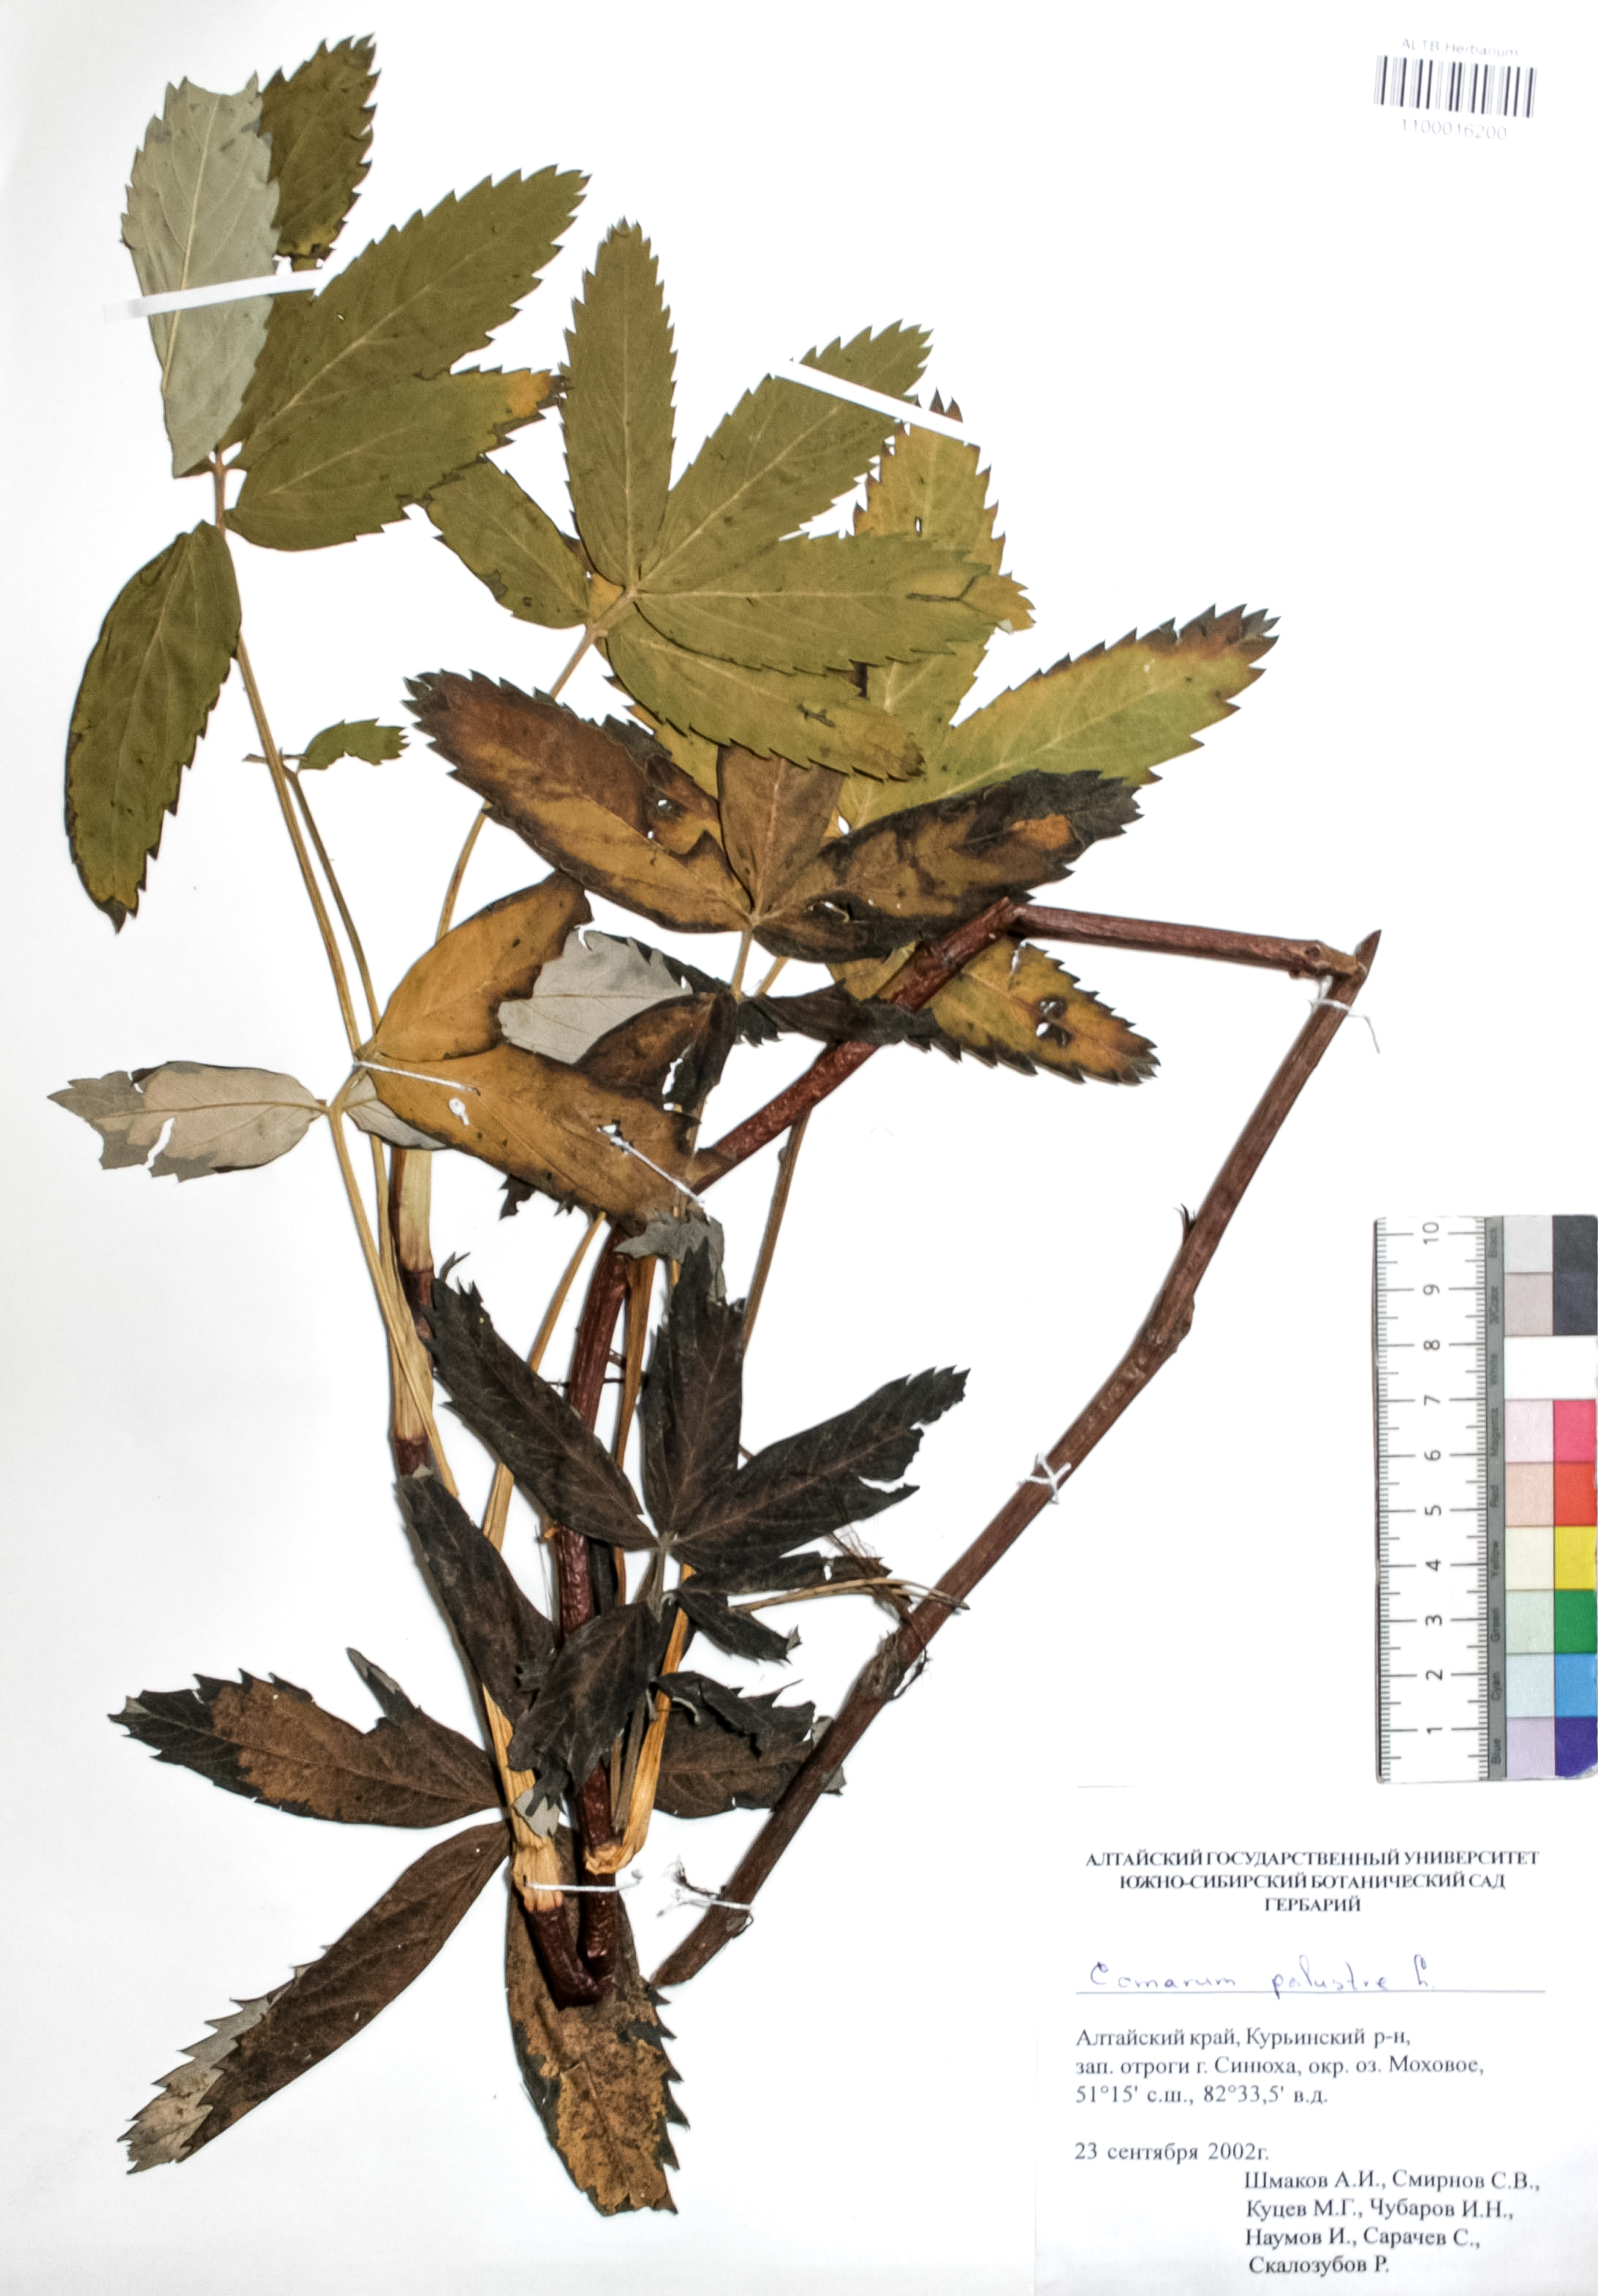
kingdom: Plantae
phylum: Tracheophyta
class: Magnoliopsida
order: Rosales
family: Rosaceae
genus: Comarum
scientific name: Comarum palustre
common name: Marsh cinquefoil
